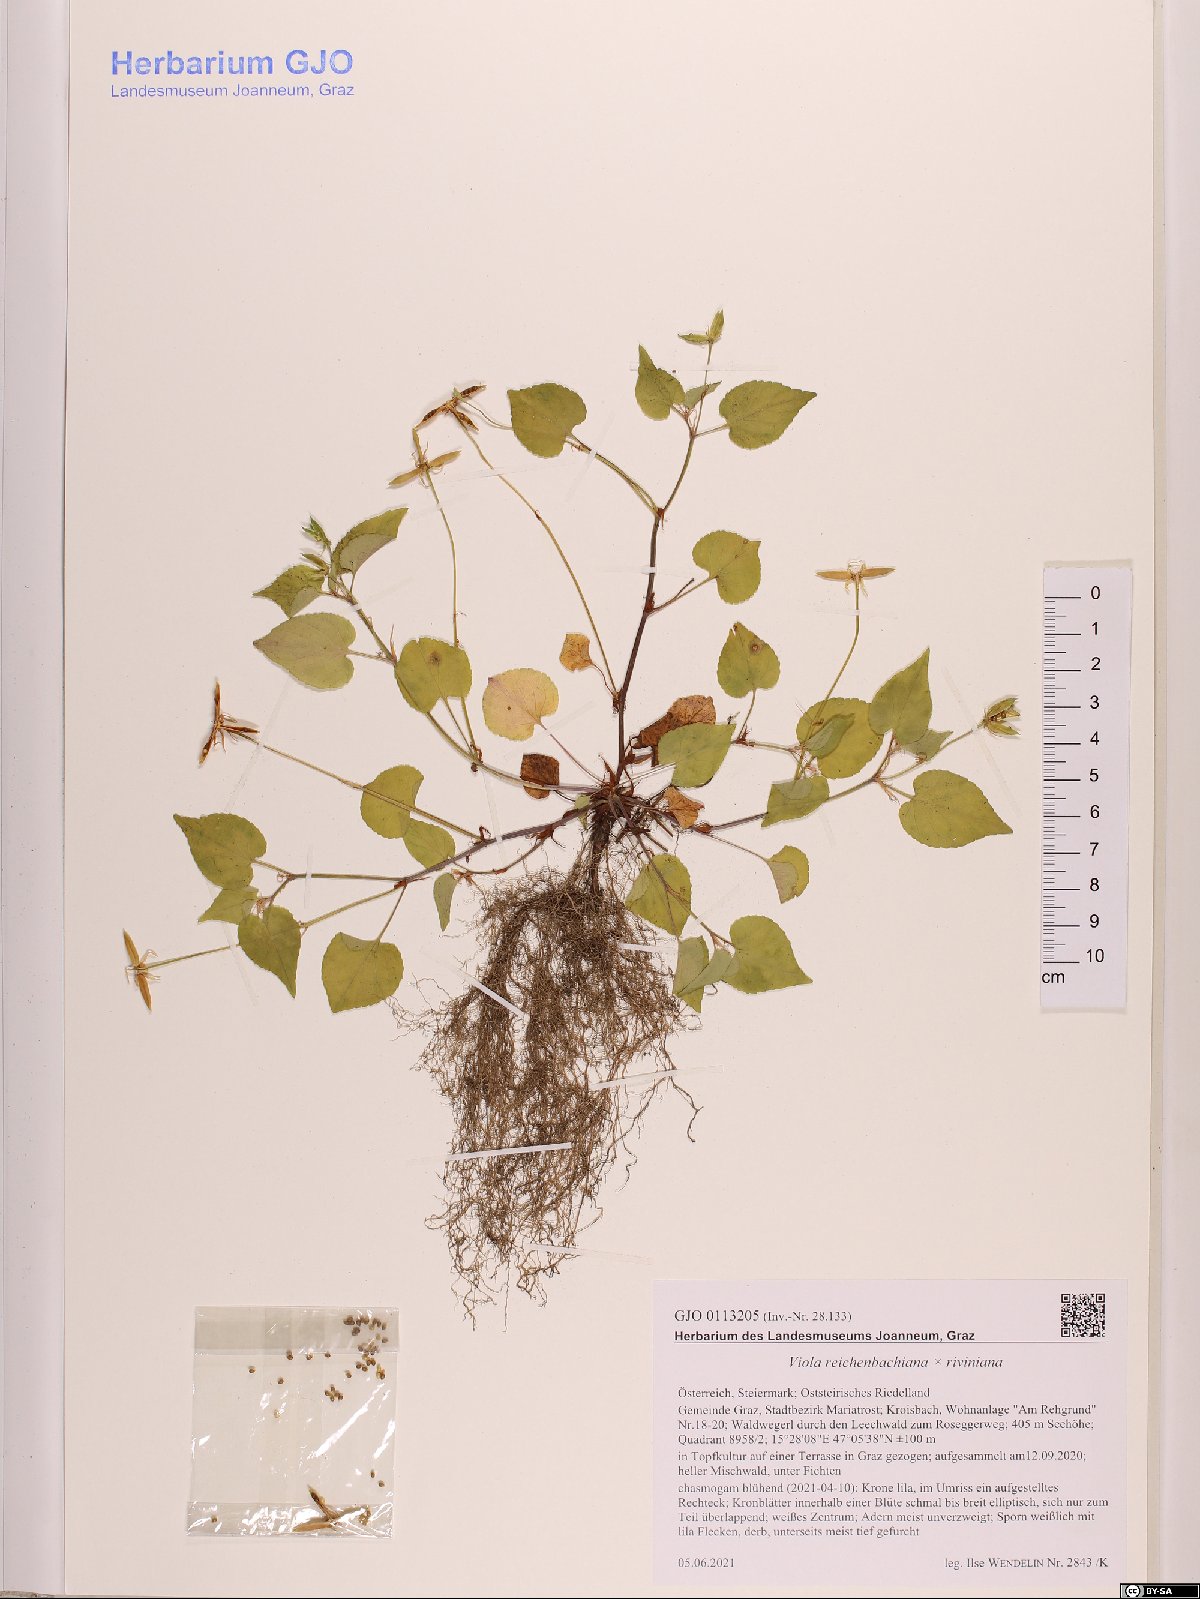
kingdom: Plantae
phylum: Tracheophyta
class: Magnoliopsida
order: Malpighiales
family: Violaceae
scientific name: Violaceae
